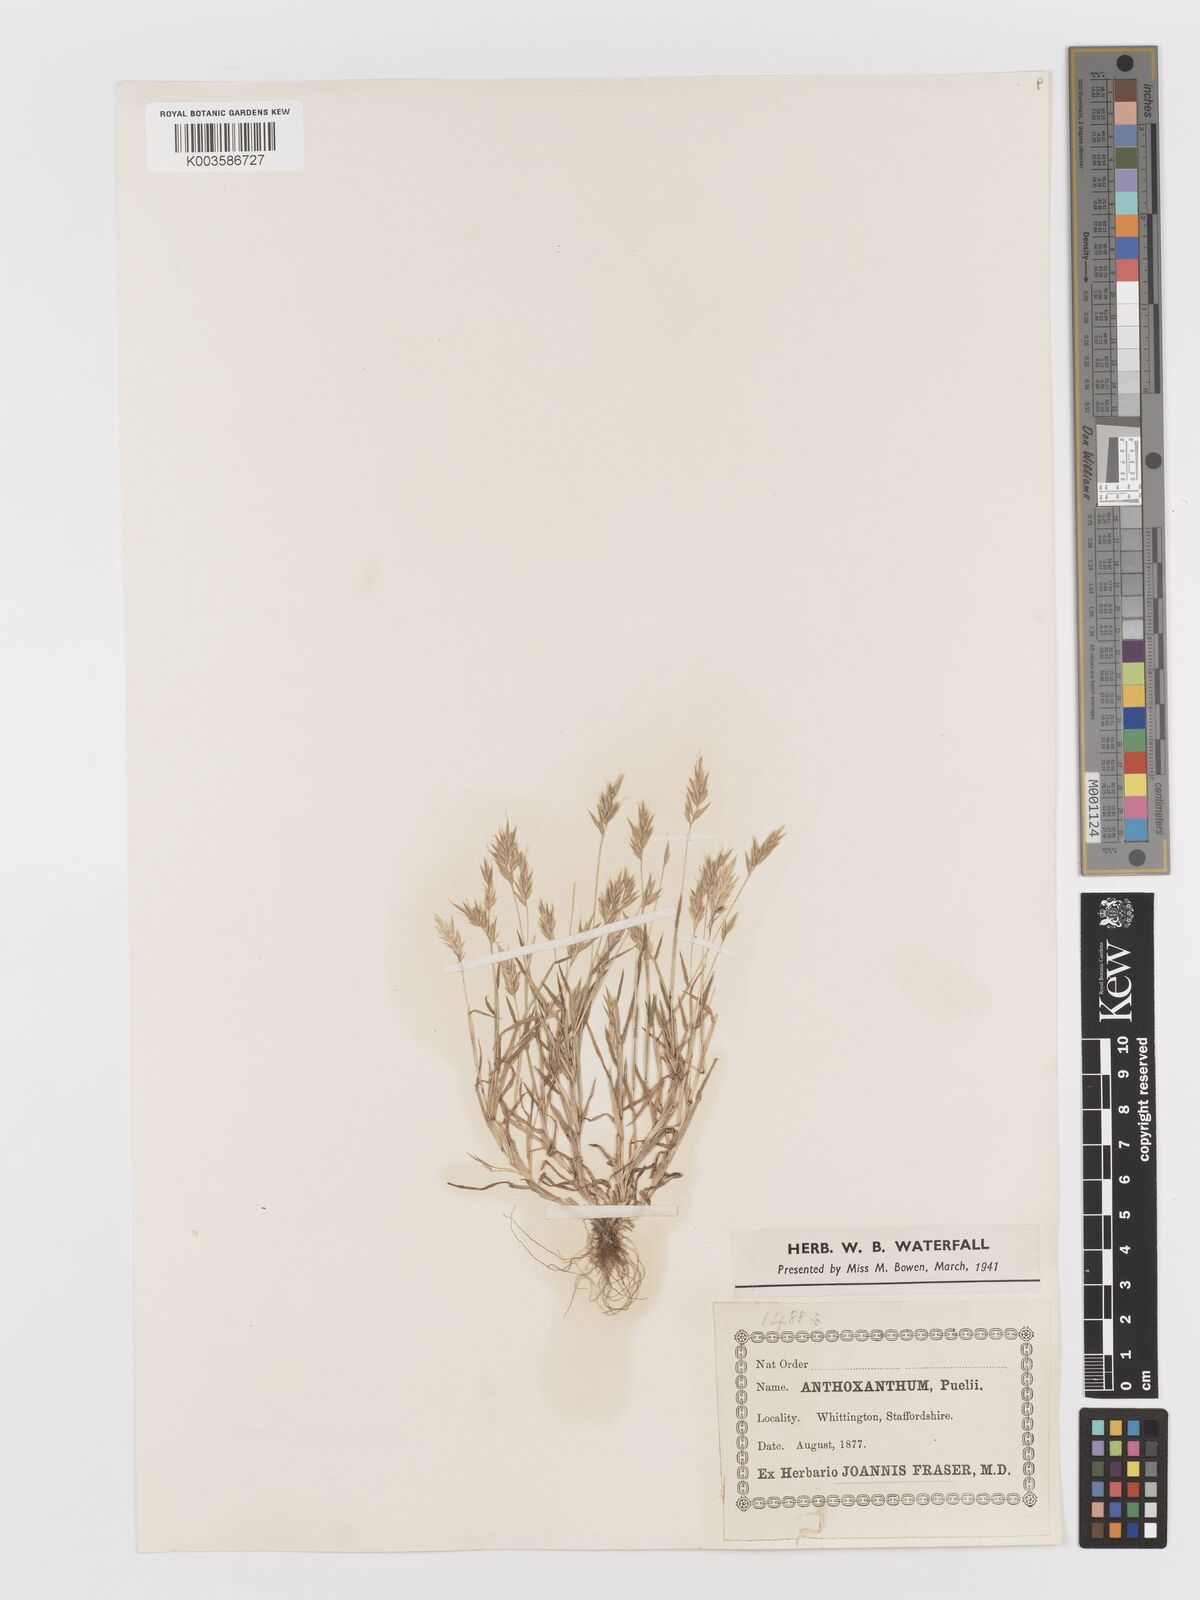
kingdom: Plantae
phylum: Tracheophyta
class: Liliopsida
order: Poales
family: Poaceae
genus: Anthoxanthum
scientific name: Anthoxanthum aristatum
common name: Annual vernal-grass
